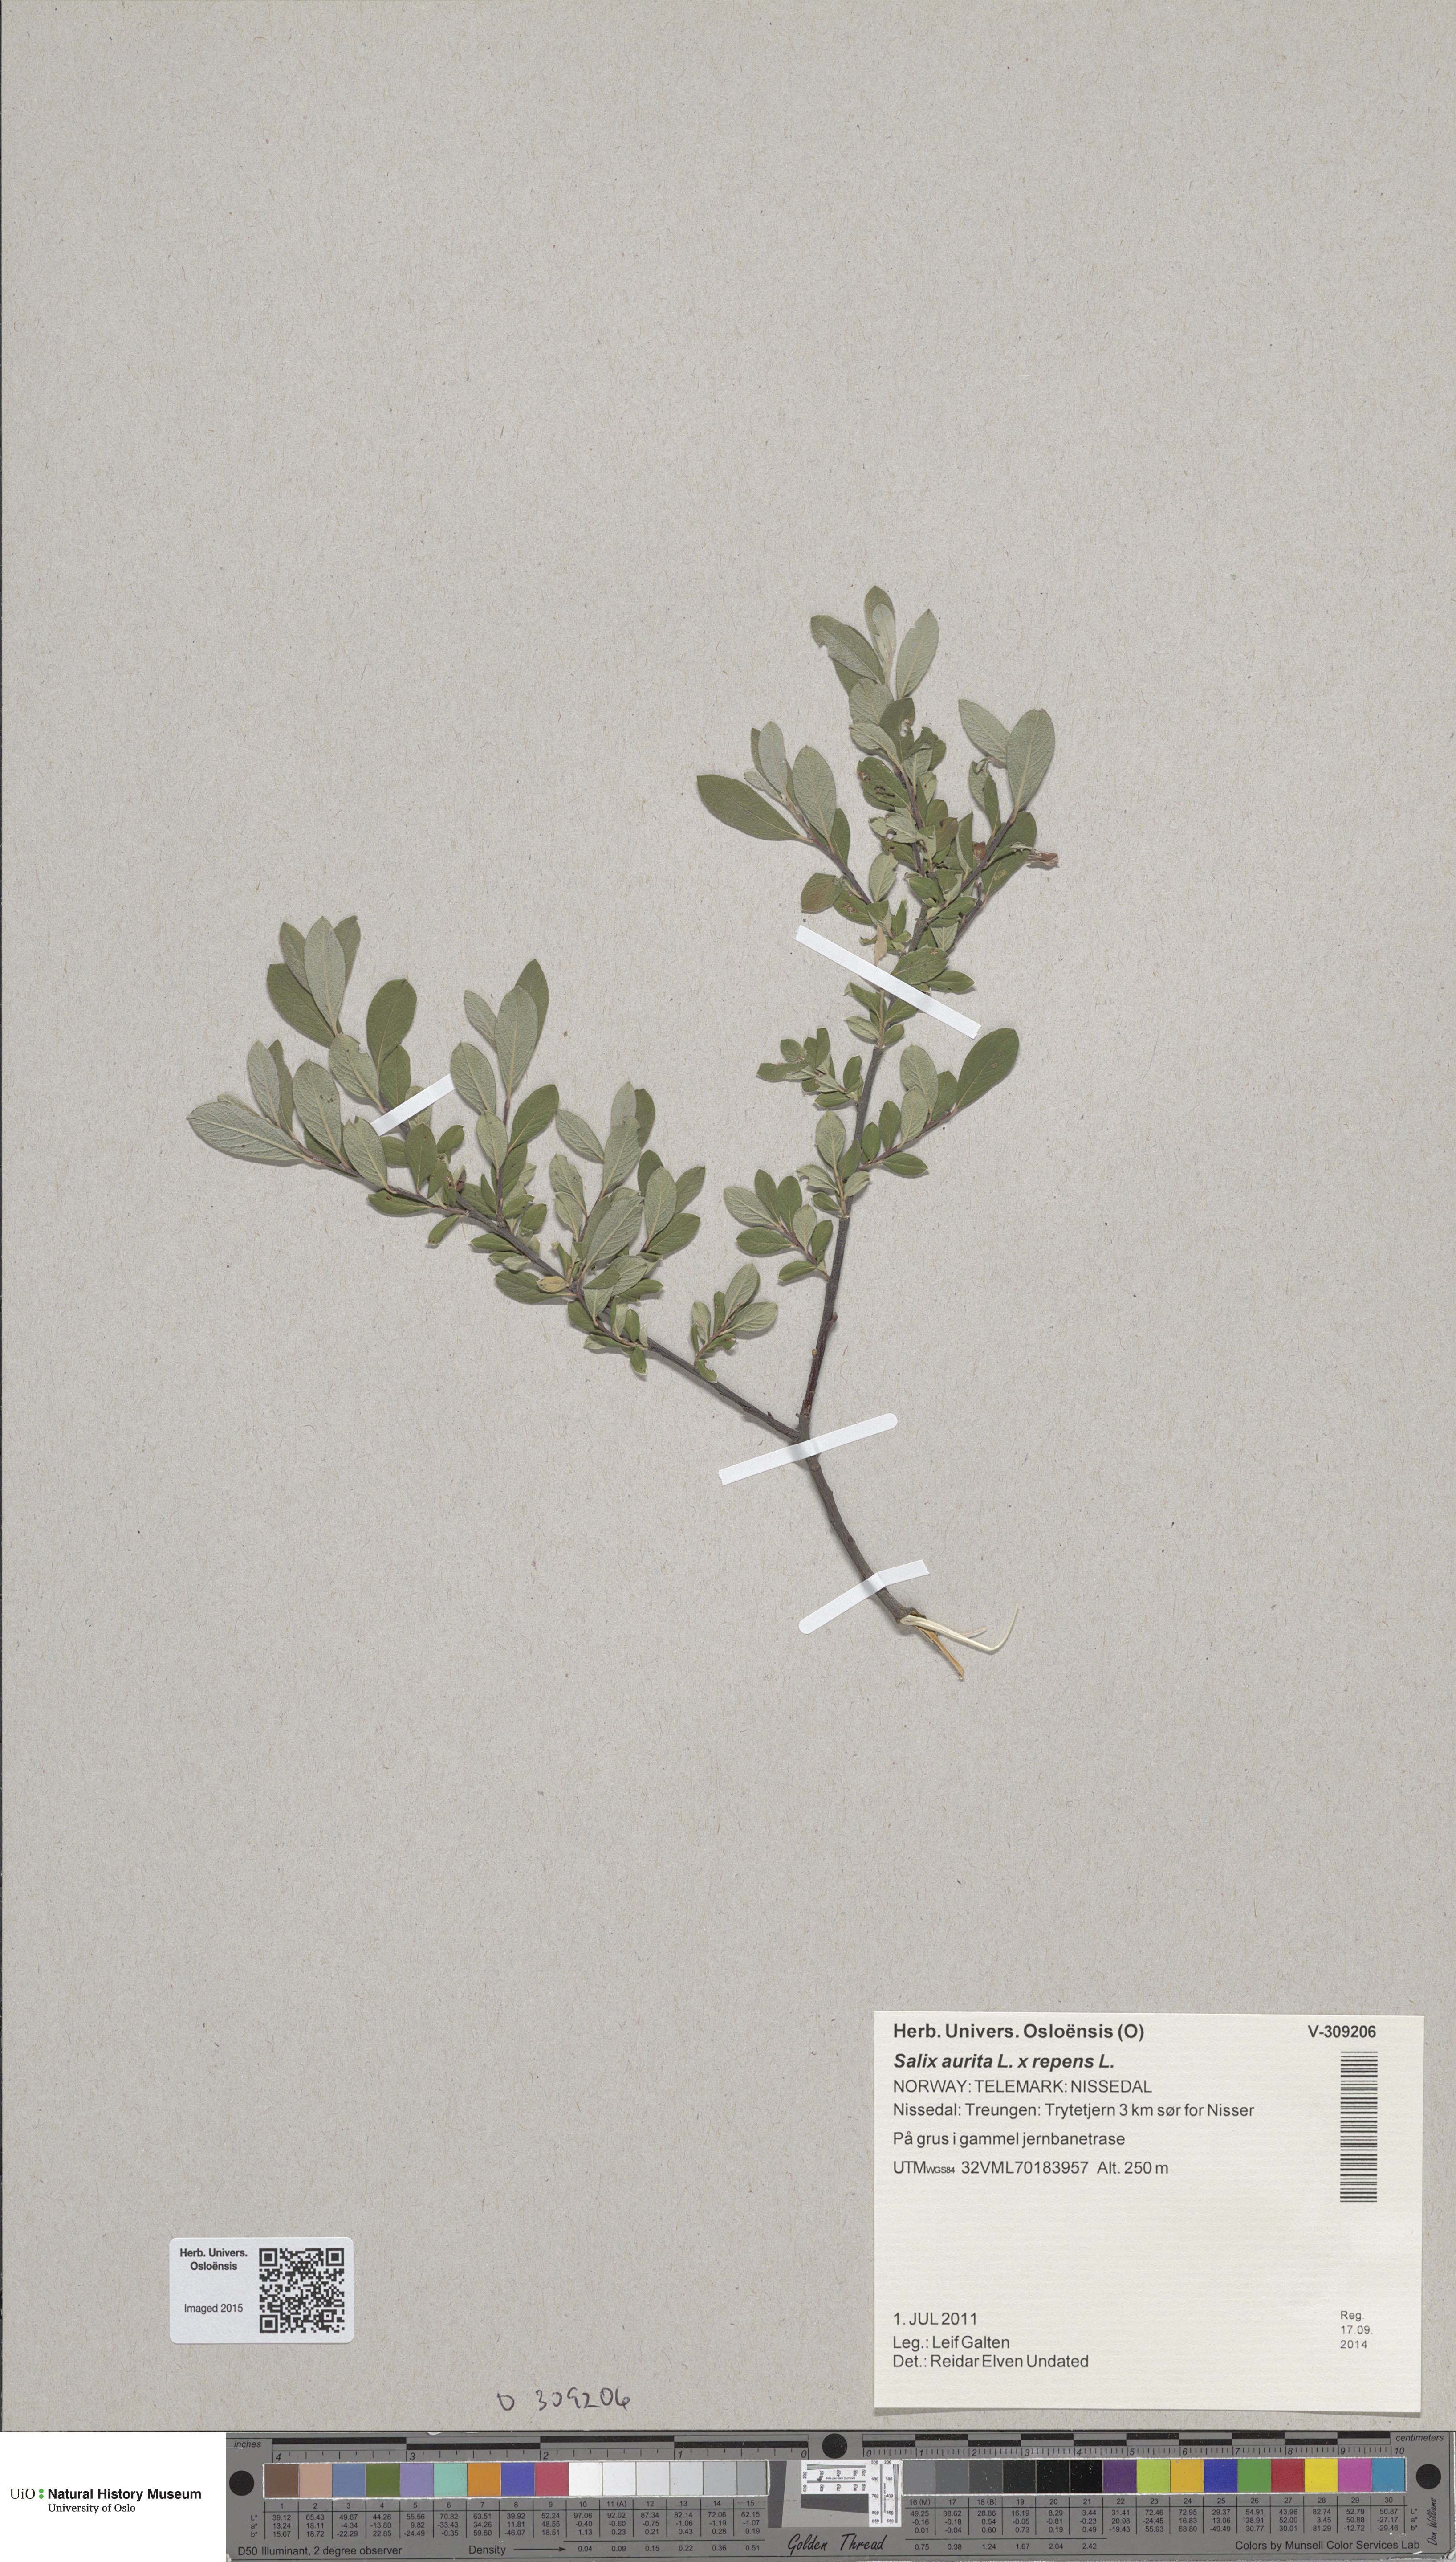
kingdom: Plantae
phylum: Tracheophyta
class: Magnoliopsida
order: Malpighiales
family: Salicaceae
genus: Salix
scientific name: Salix
